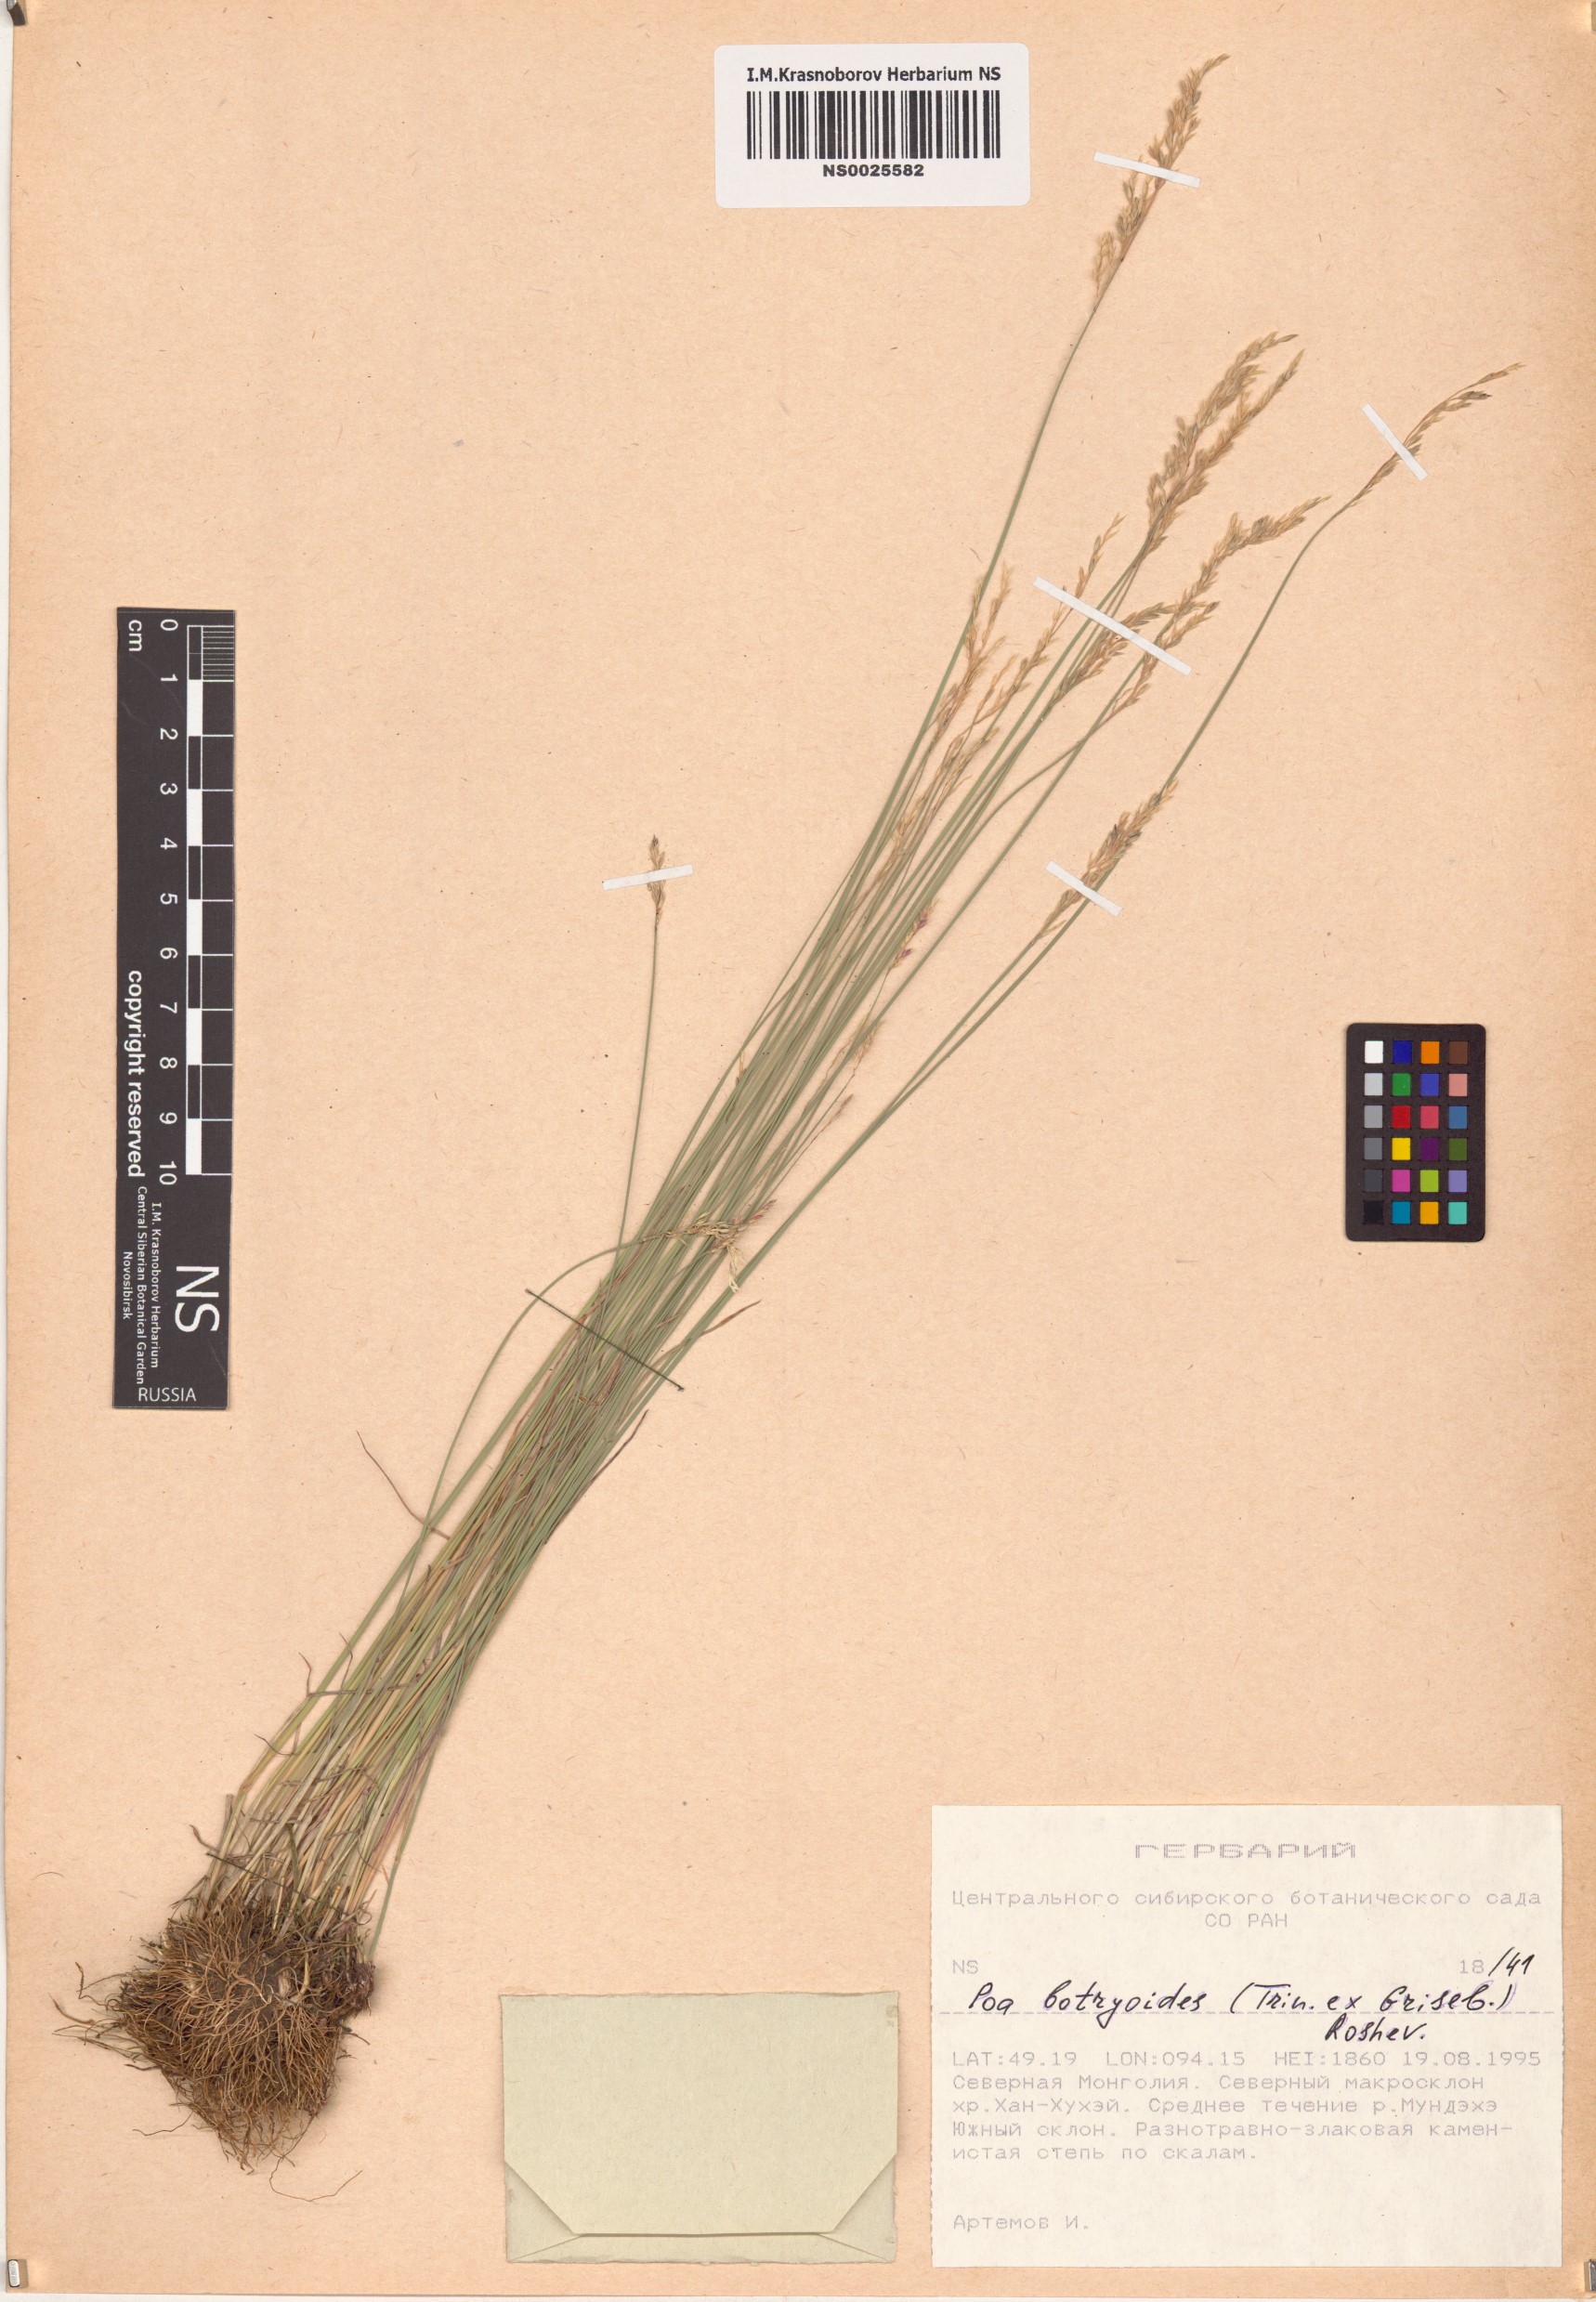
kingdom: Plantae
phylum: Tracheophyta
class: Liliopsida
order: Poales
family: Poaceae
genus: Poa
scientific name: Poa attenuata
